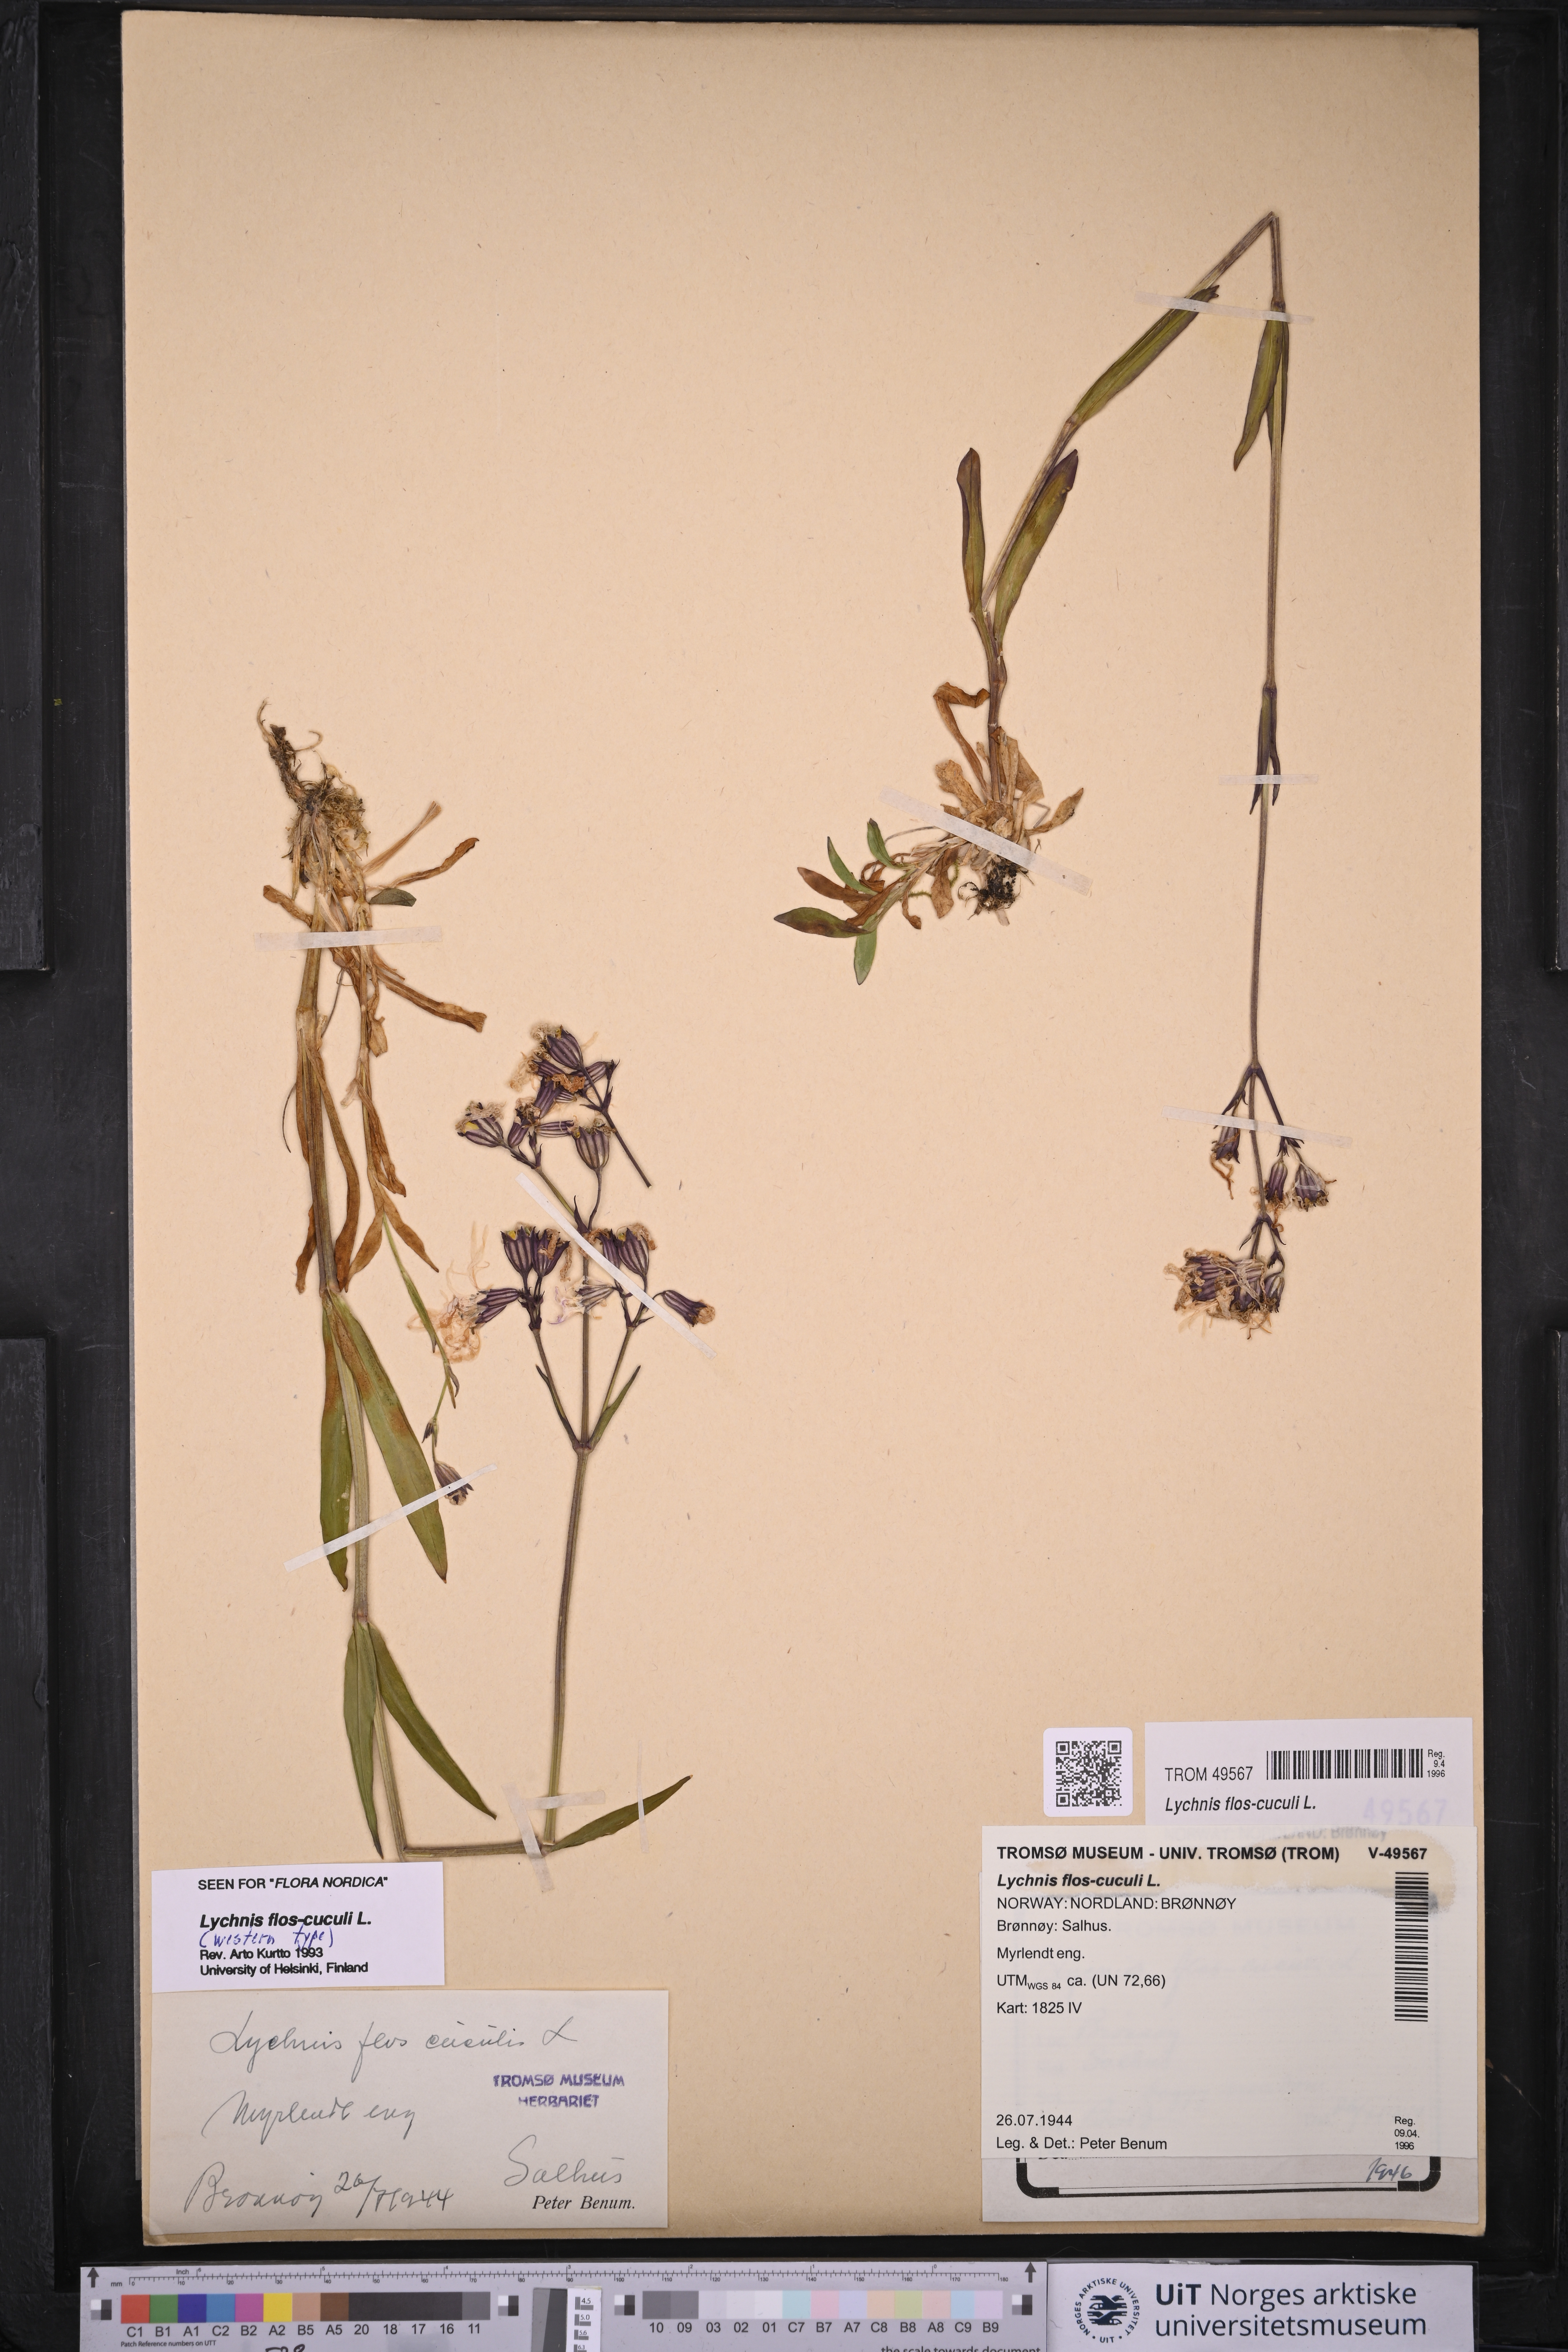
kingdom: Plantae
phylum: Tracheophyta
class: Magnoliopsida
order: Caryophyllales
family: Caryophyllaceae
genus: Silene
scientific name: Silene flos-cuculi
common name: Ragged-robin
